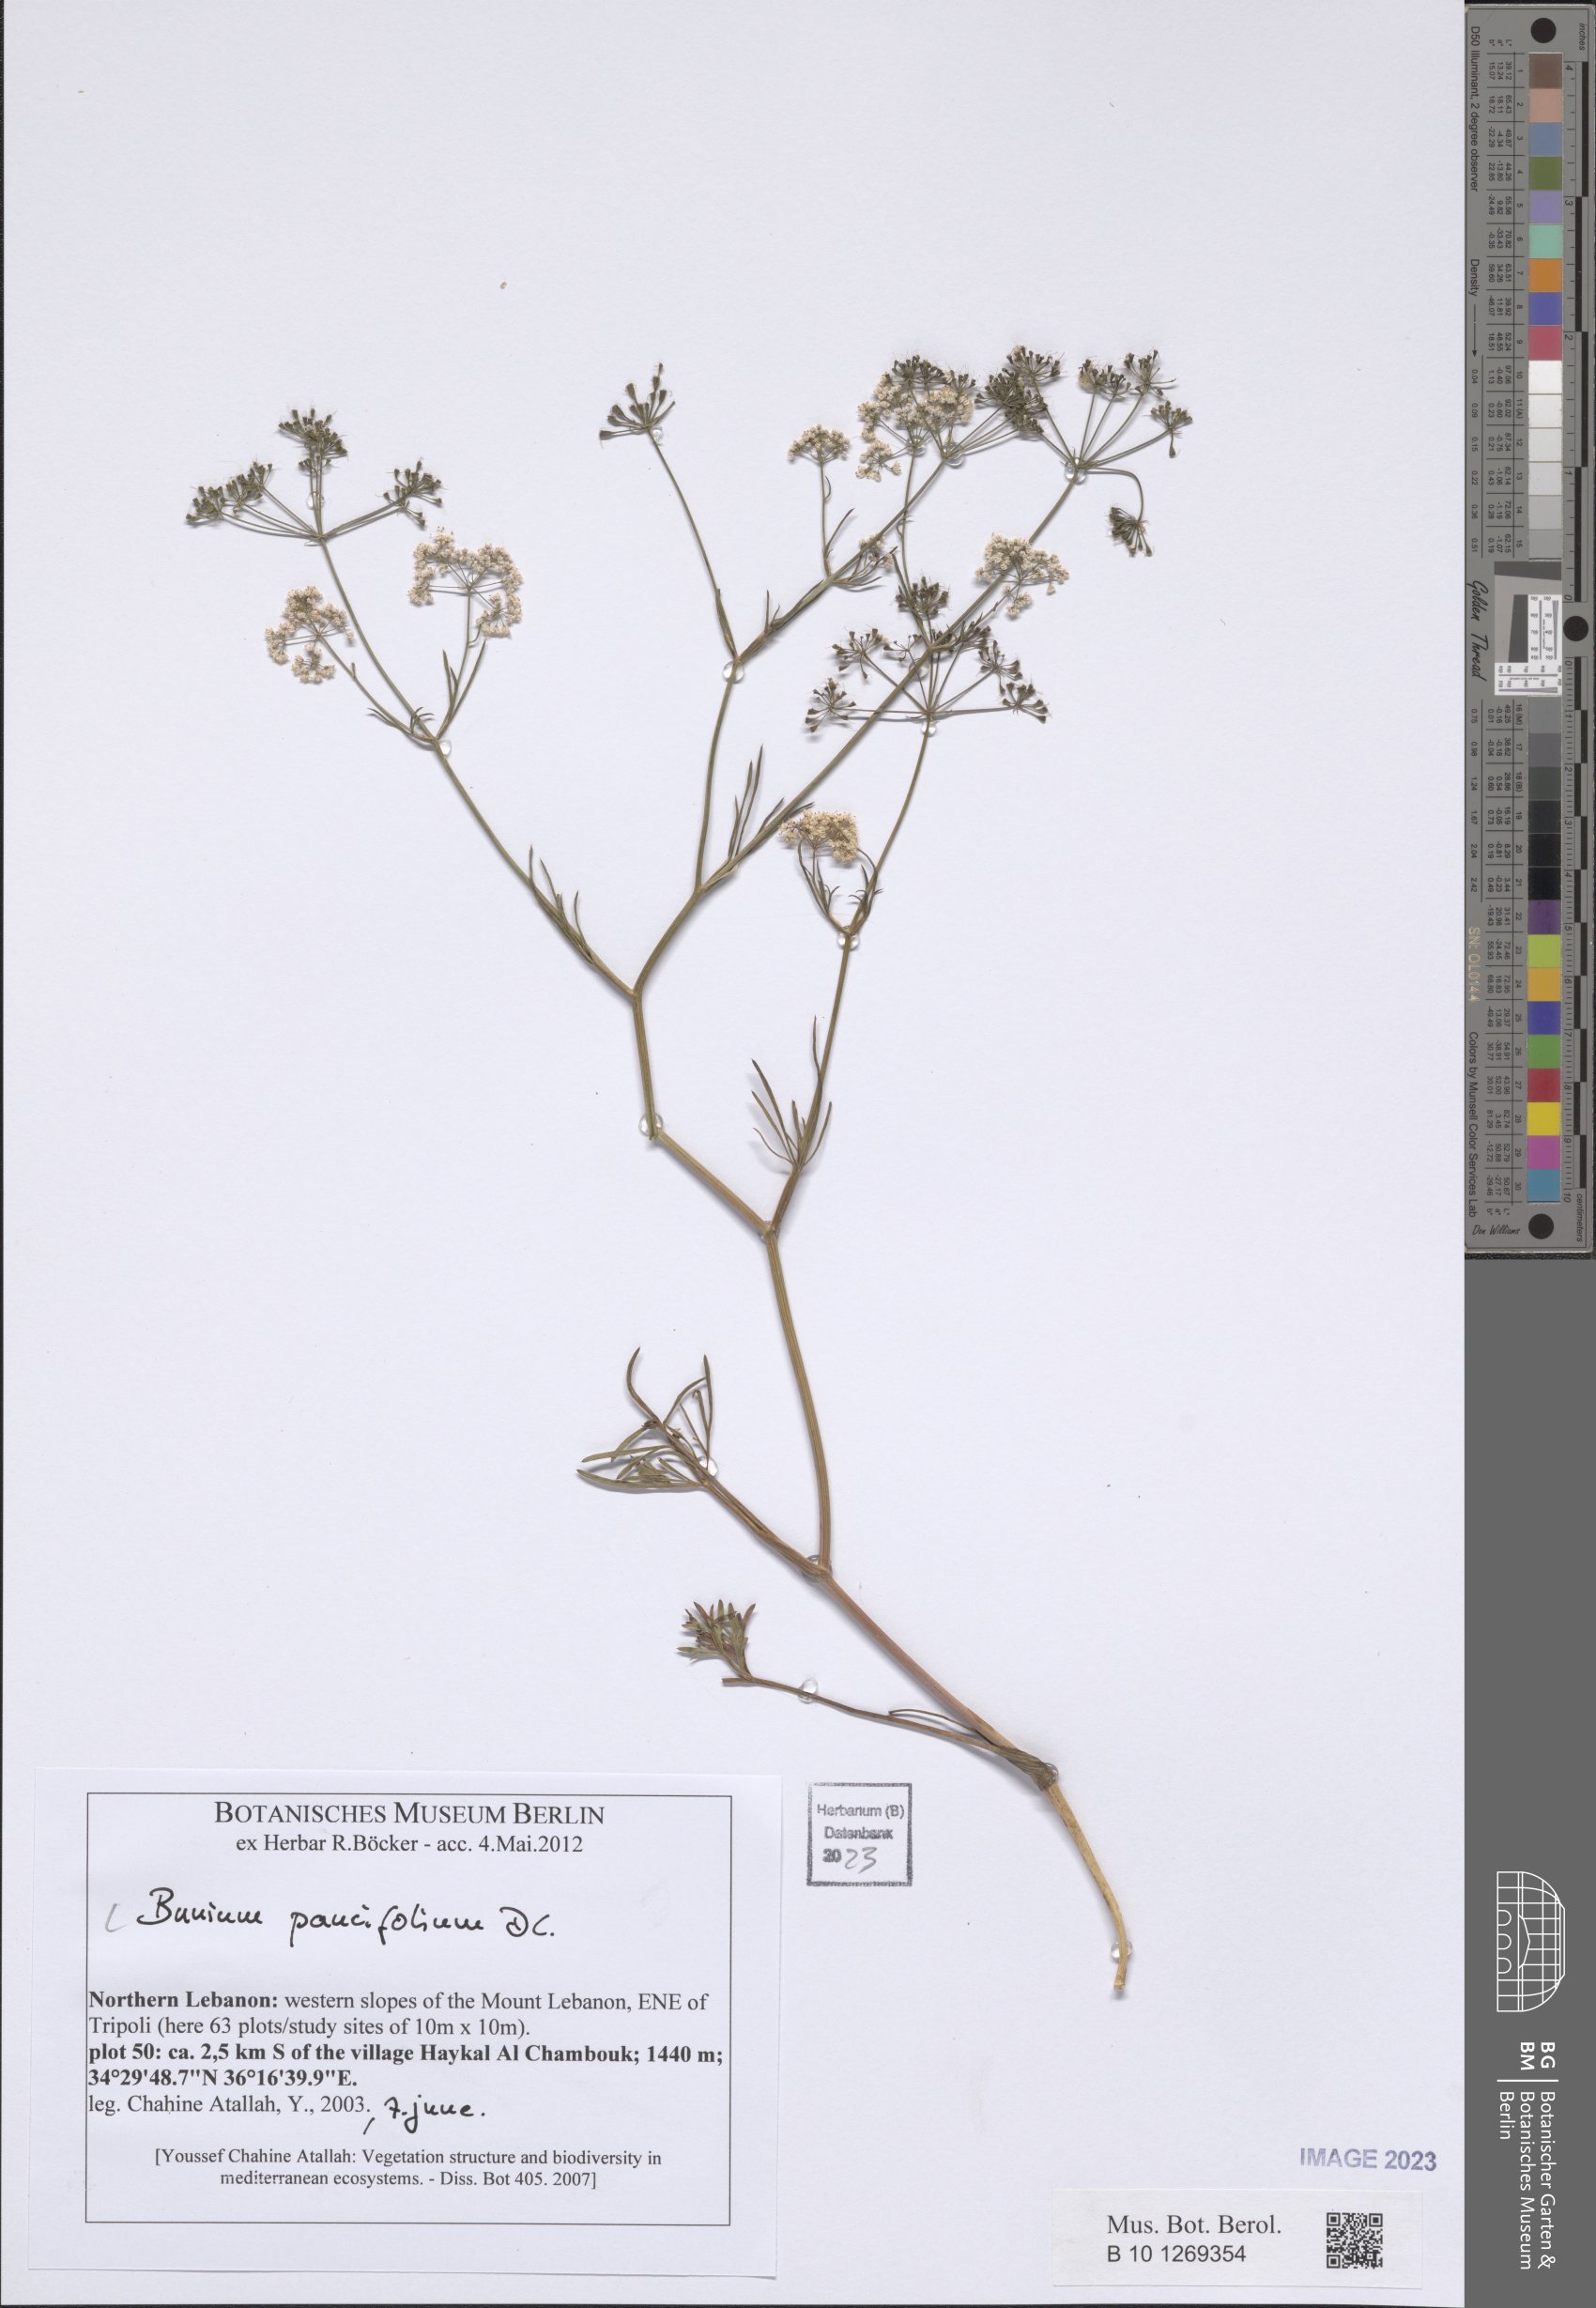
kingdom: Plantae
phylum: Tracheophyta
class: Magnoliopsida
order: Apiales
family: Apiaceae
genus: Bunium
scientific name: Bunium paucifolium
